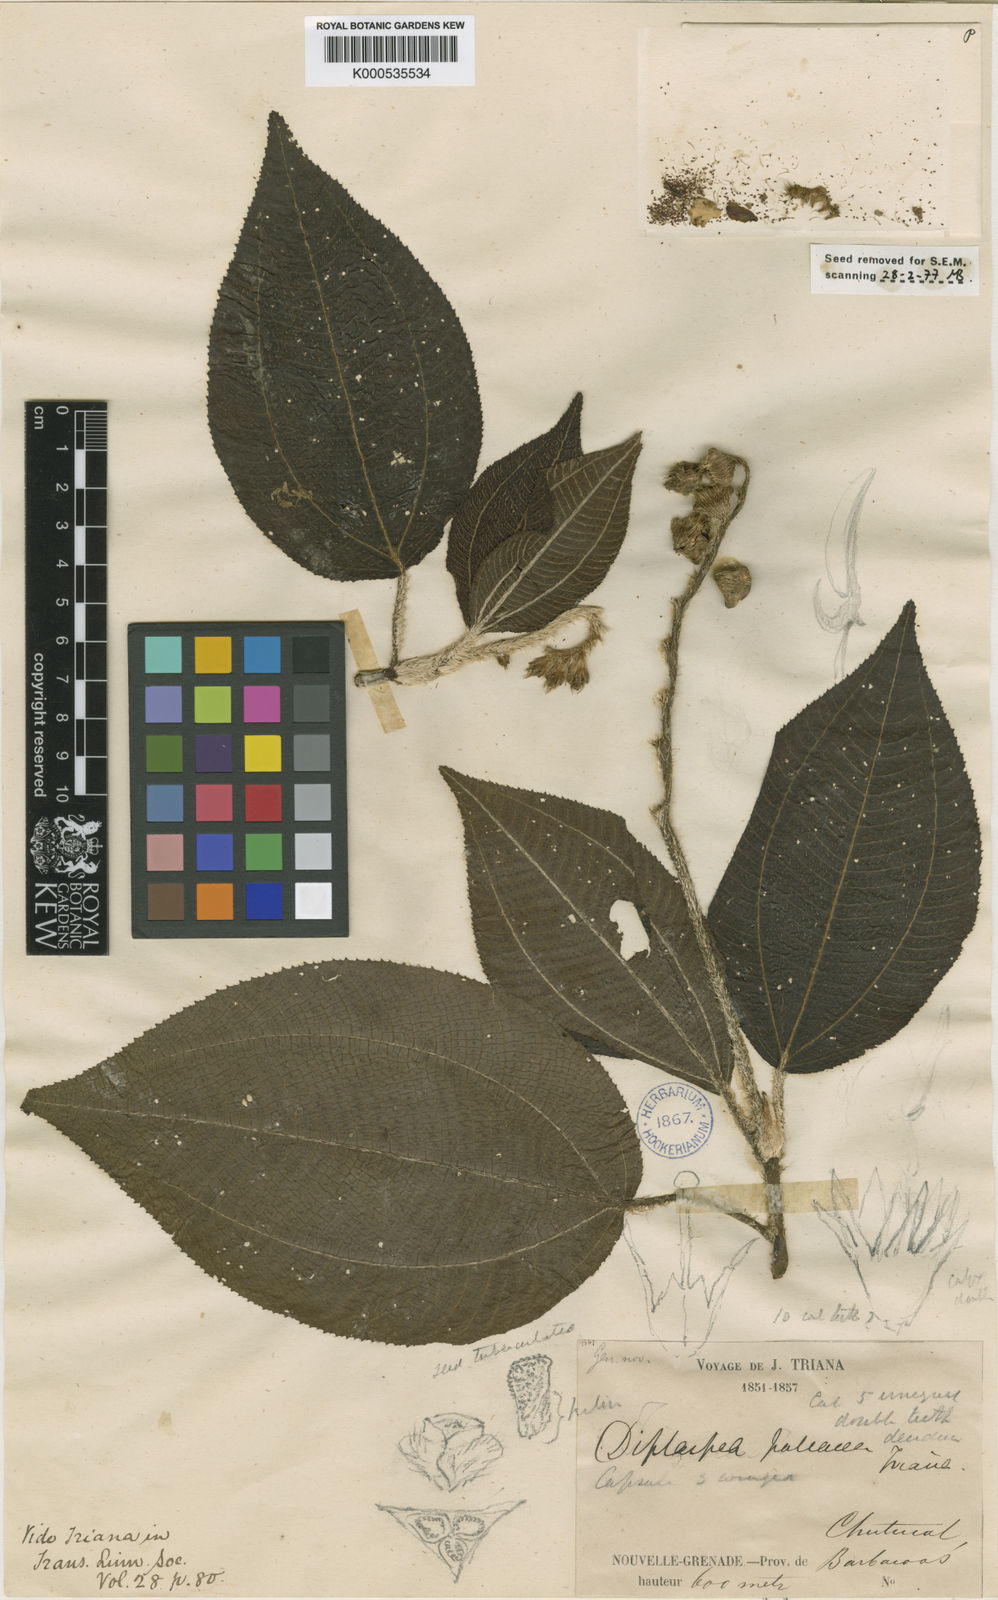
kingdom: Plantae
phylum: Tracheophyta
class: Magnoliopsida
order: Myrtales
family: Melastomataceae
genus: Andesanthus
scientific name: Andesanthus paleaceus
